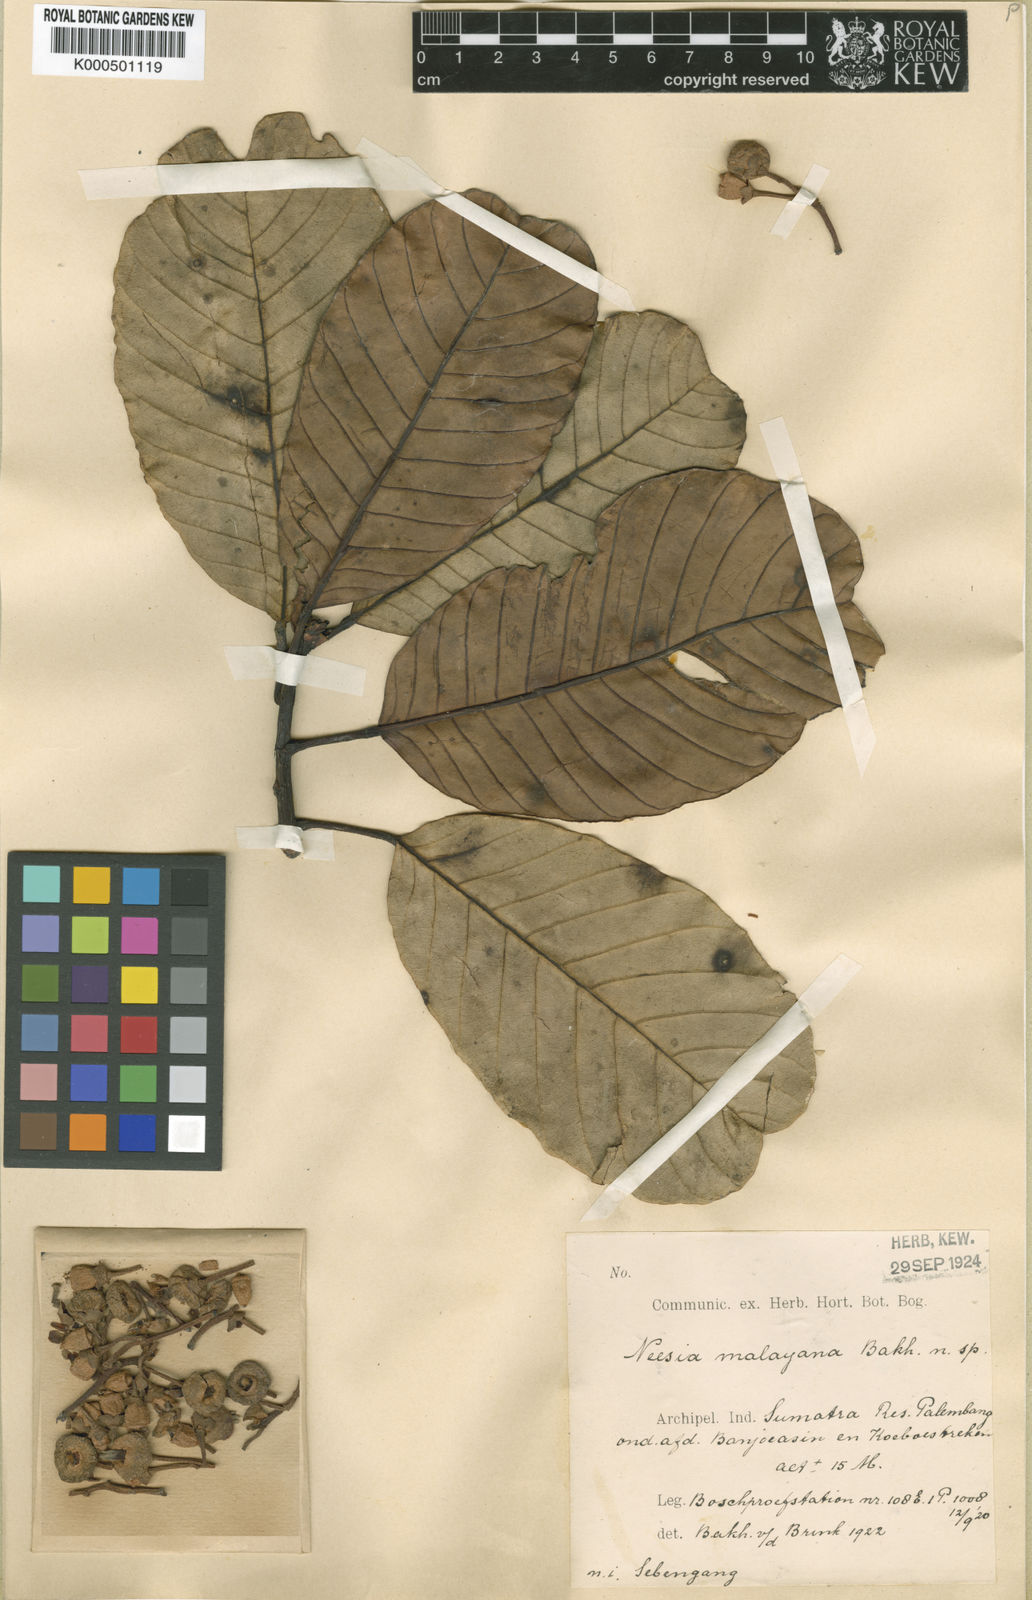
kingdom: Plantae
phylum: Tracheophyta
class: Magnoliopsida
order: Malvales
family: Malvaceae
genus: Neesia
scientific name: Neesia malayana
